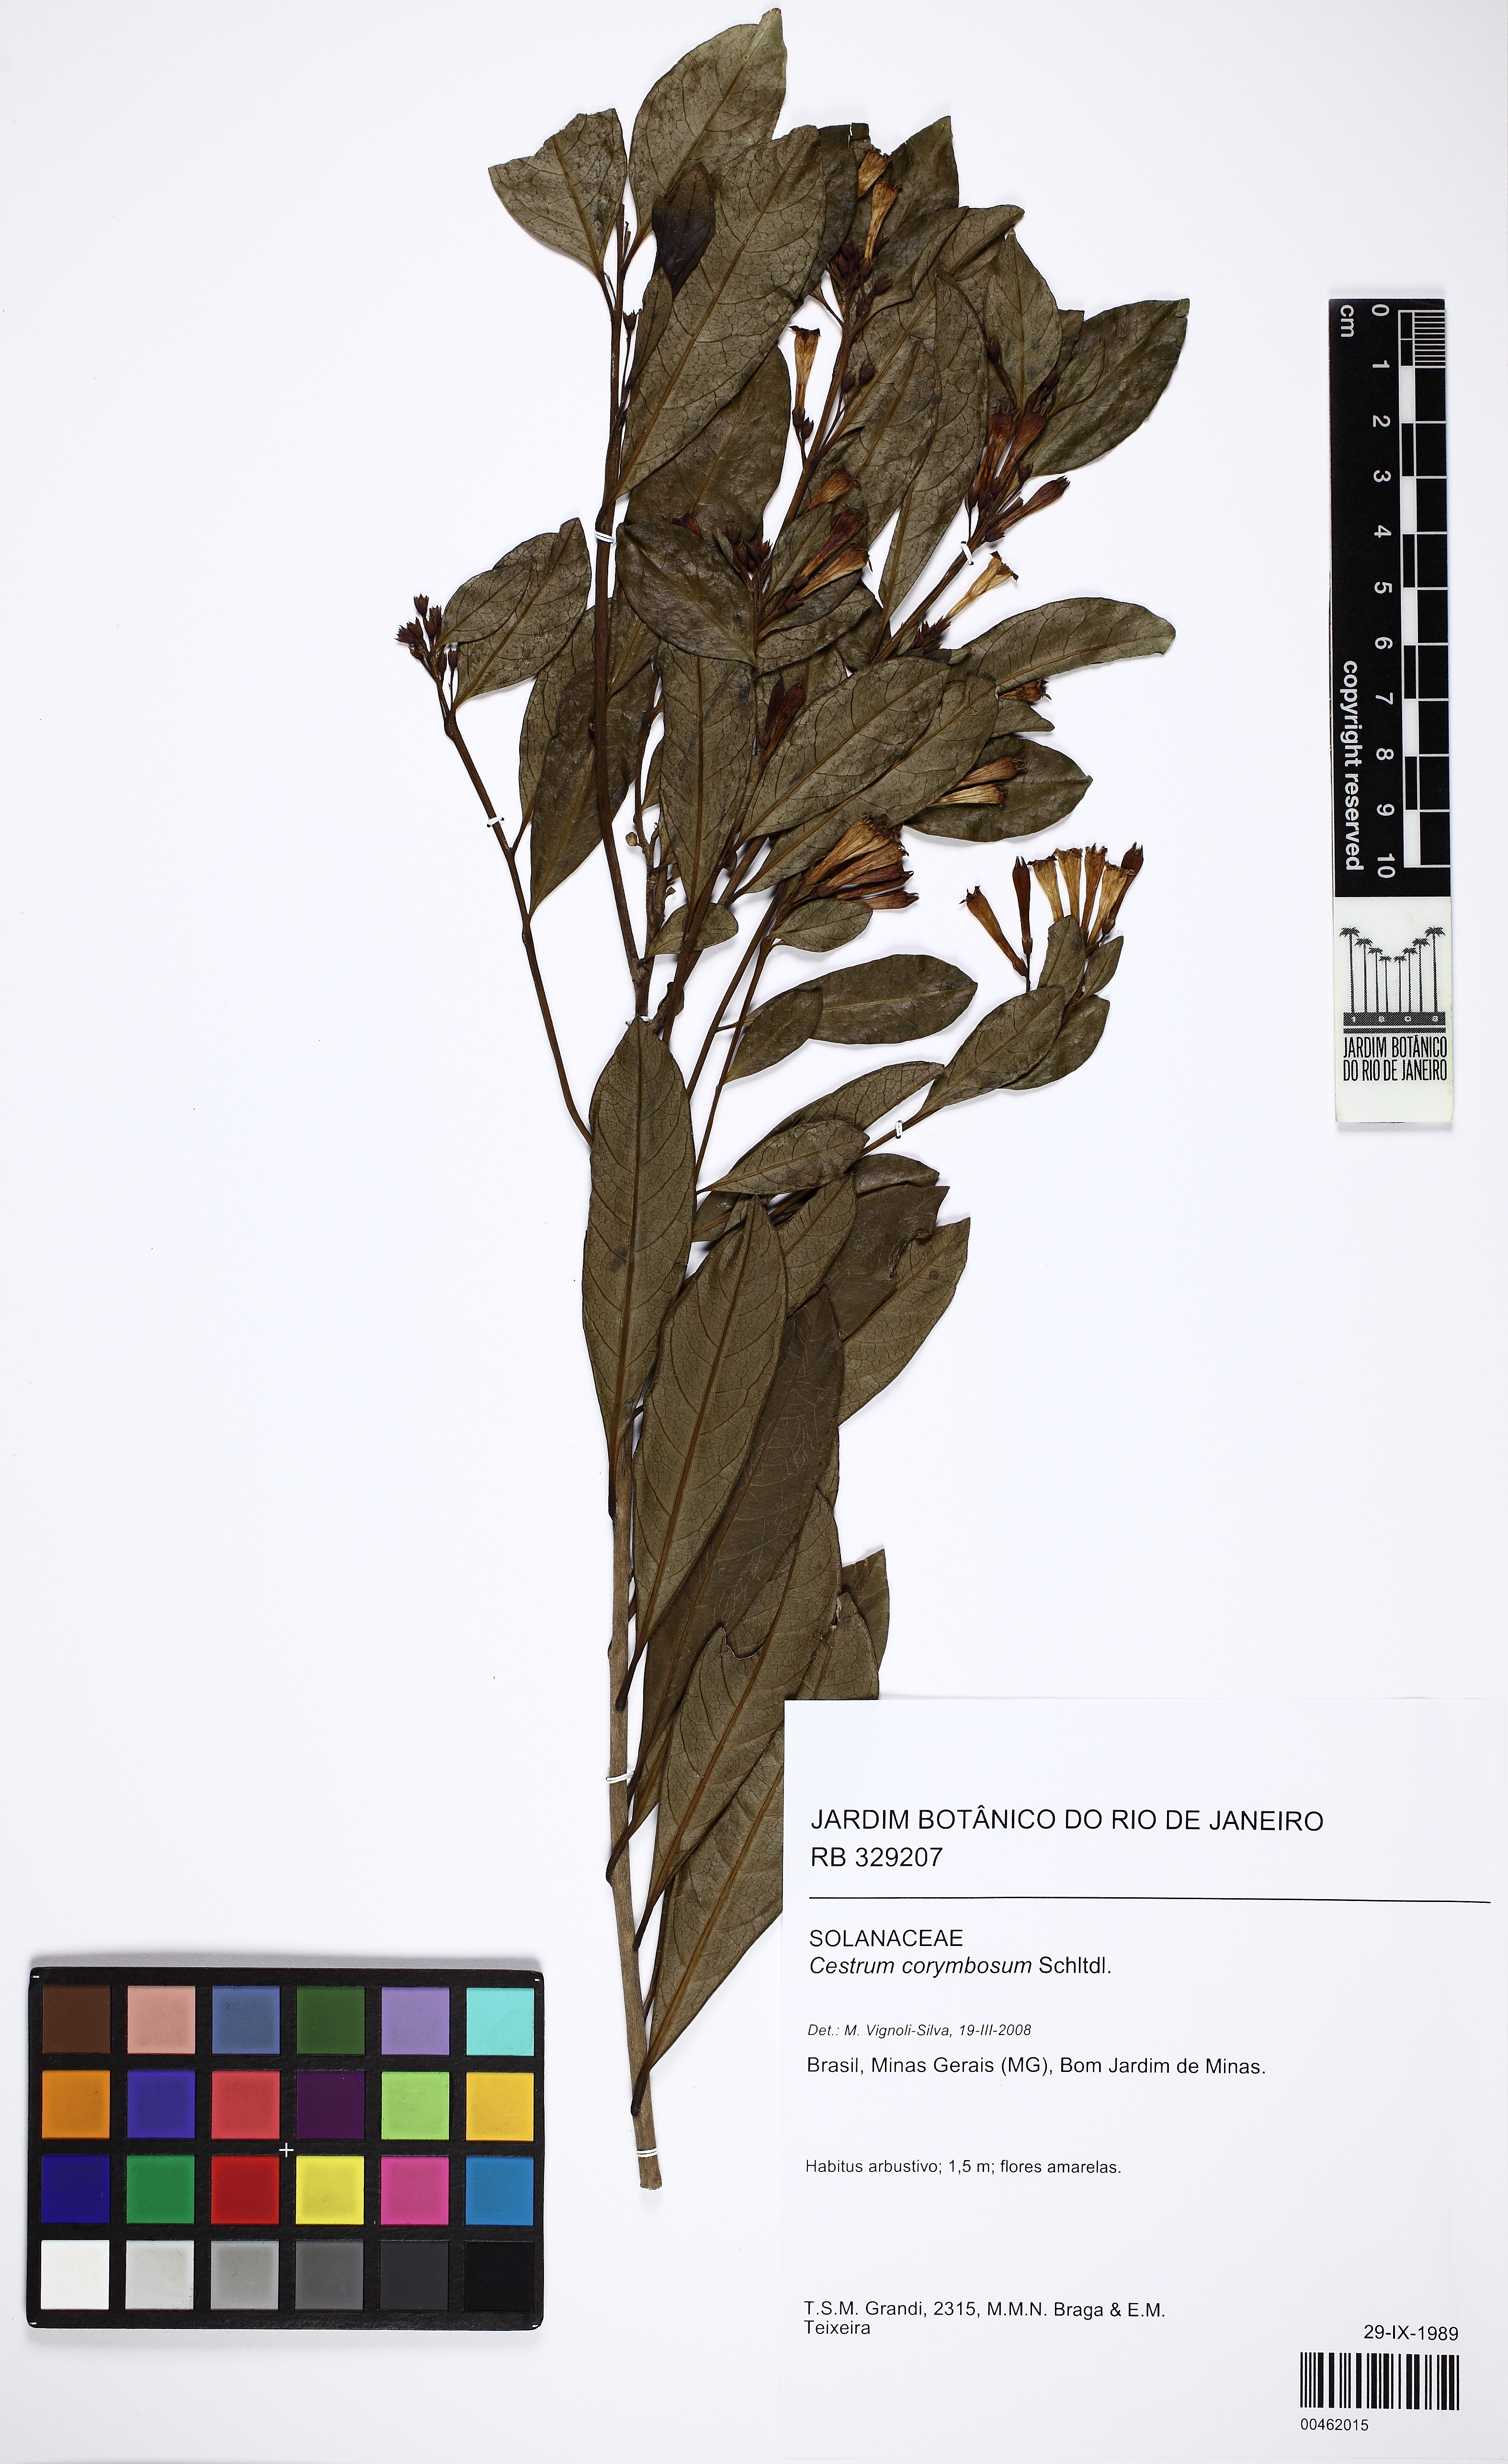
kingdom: Plantae
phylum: Tracheophyta
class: Magnoliopsida
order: Solanales
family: Solanaceae
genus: Cestrum
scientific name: Cestrum corymbosum
